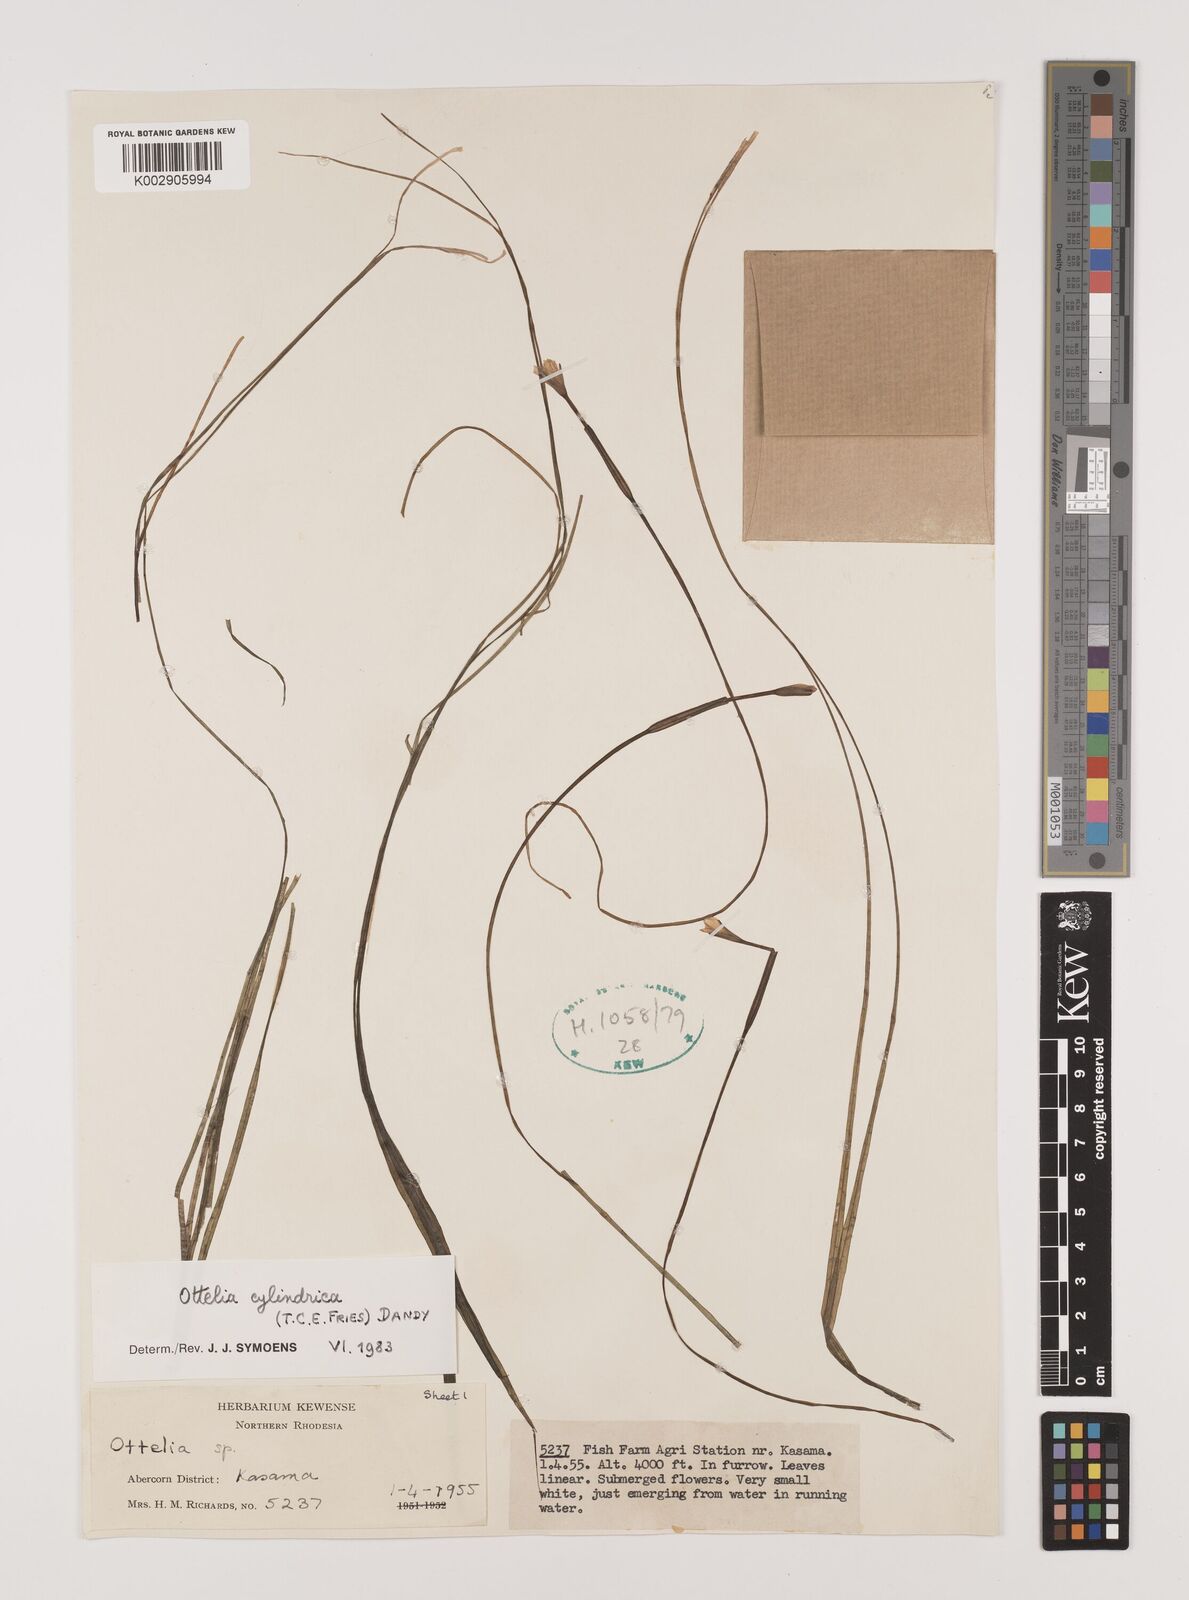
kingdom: Plantae
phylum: Tracheophyta
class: Liliopsida
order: Alismatales
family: Hydrocharitaceae
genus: Ottelia
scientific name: Ottelia cylindrica
